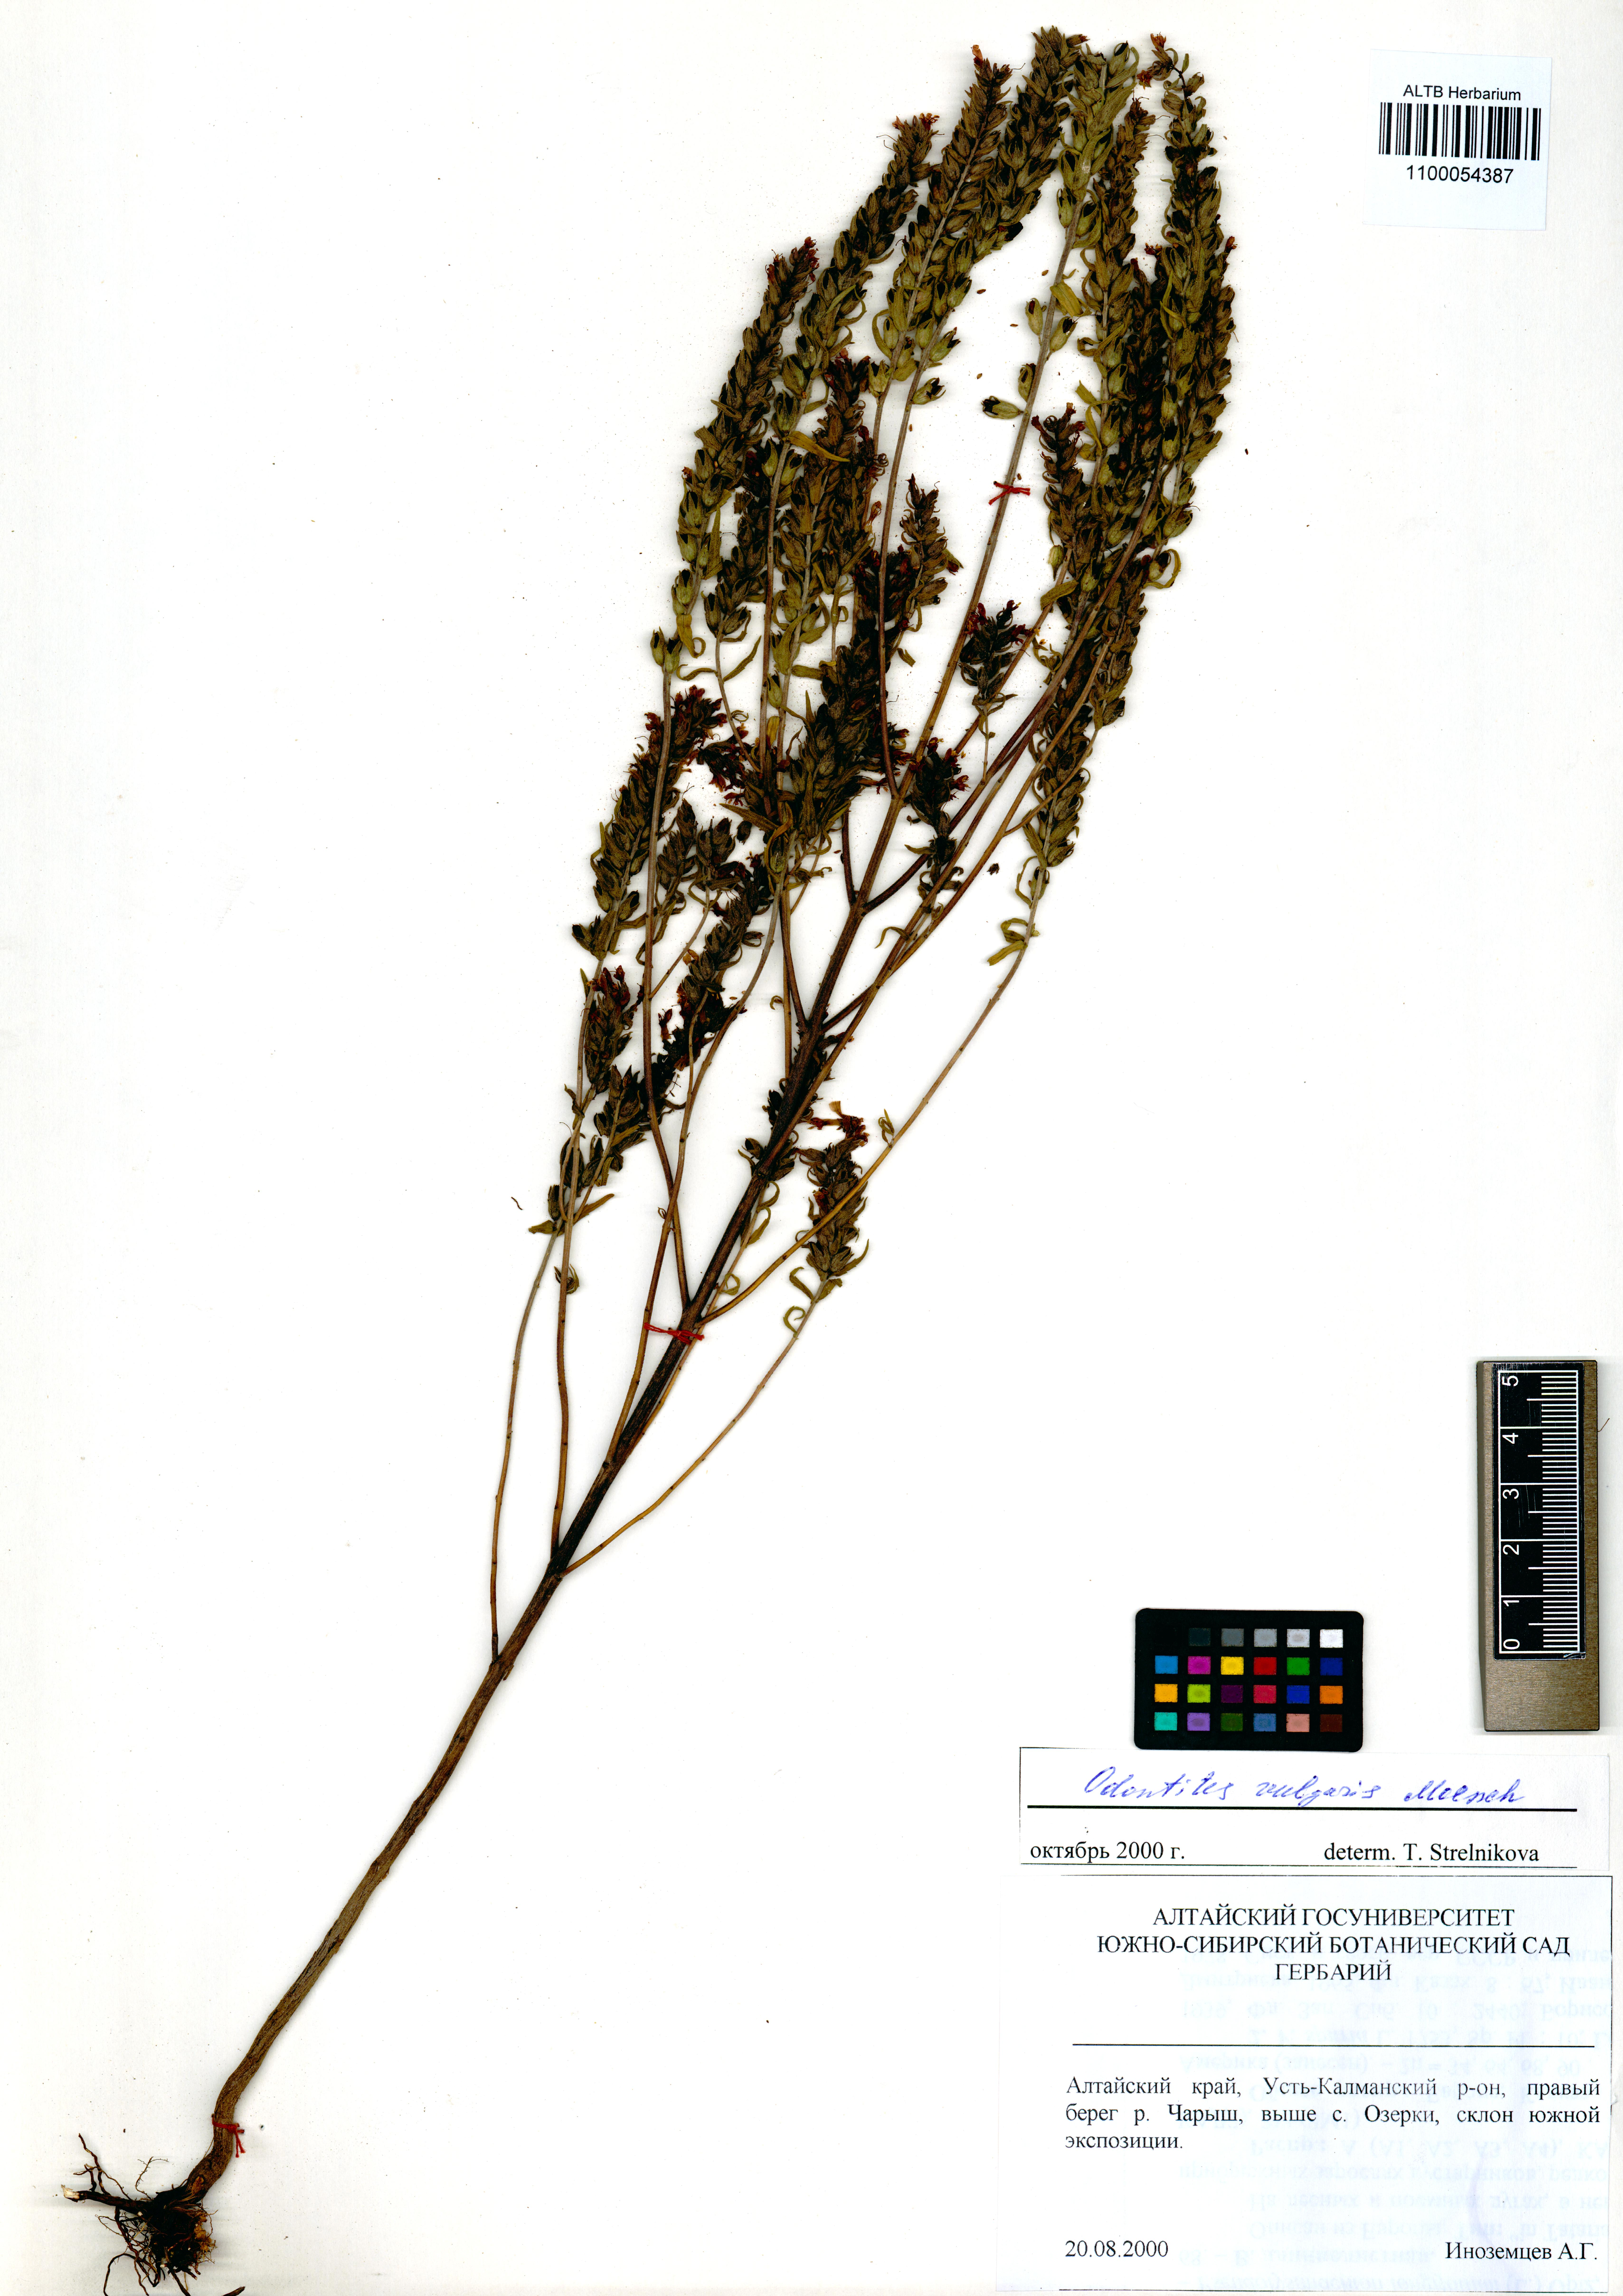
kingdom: Plantae
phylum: Tracheophyta
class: Magnoliopsida
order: Lamiales
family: Orobanchaceae
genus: Odontites
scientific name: Odontites vulgaris
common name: Broomrape
